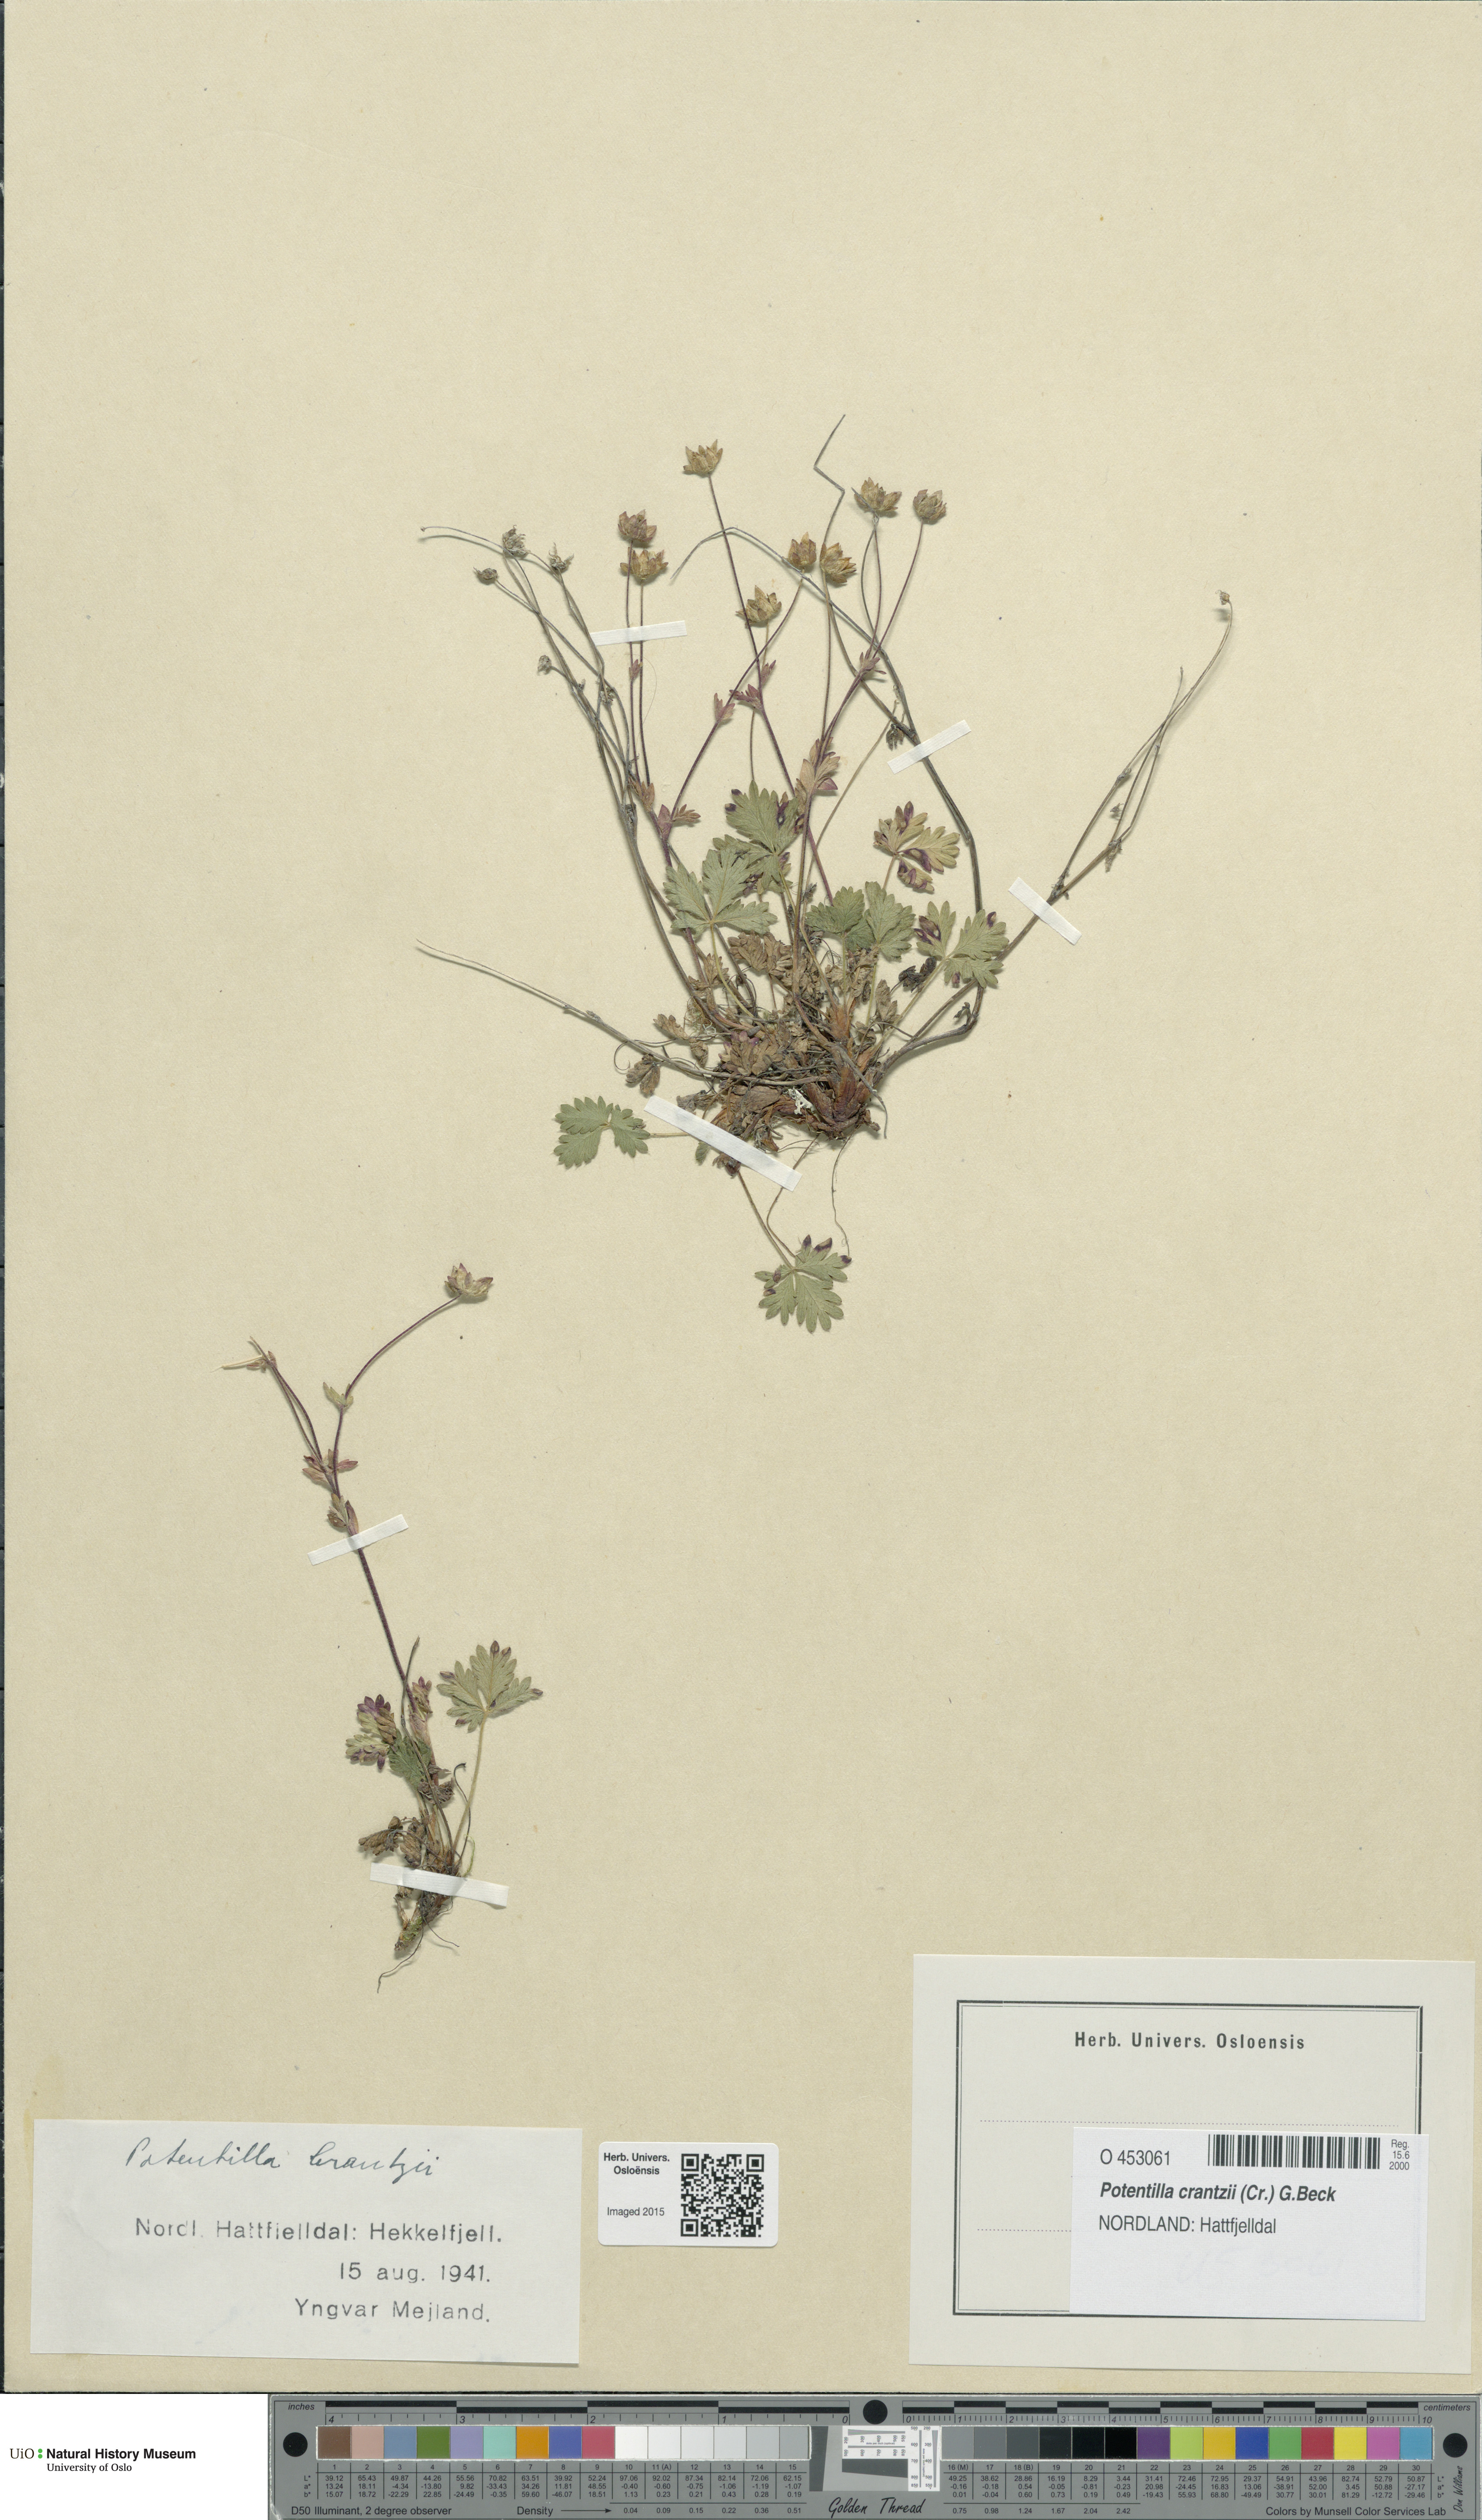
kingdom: Plantae
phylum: Tracheophyta
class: Magnoliopsida
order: Rosales
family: Rosaceae
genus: Potentilla
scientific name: Potentilla crantzii
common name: Alpine cinquefoil
